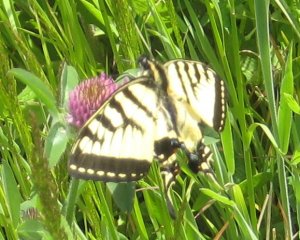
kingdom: Animalia
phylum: Arthropoda
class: Insecta
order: Lepidoptera
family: Papilionidae
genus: Pterourus
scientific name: Pterourus canadensis
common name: Canadian Tiger Swallowtail
